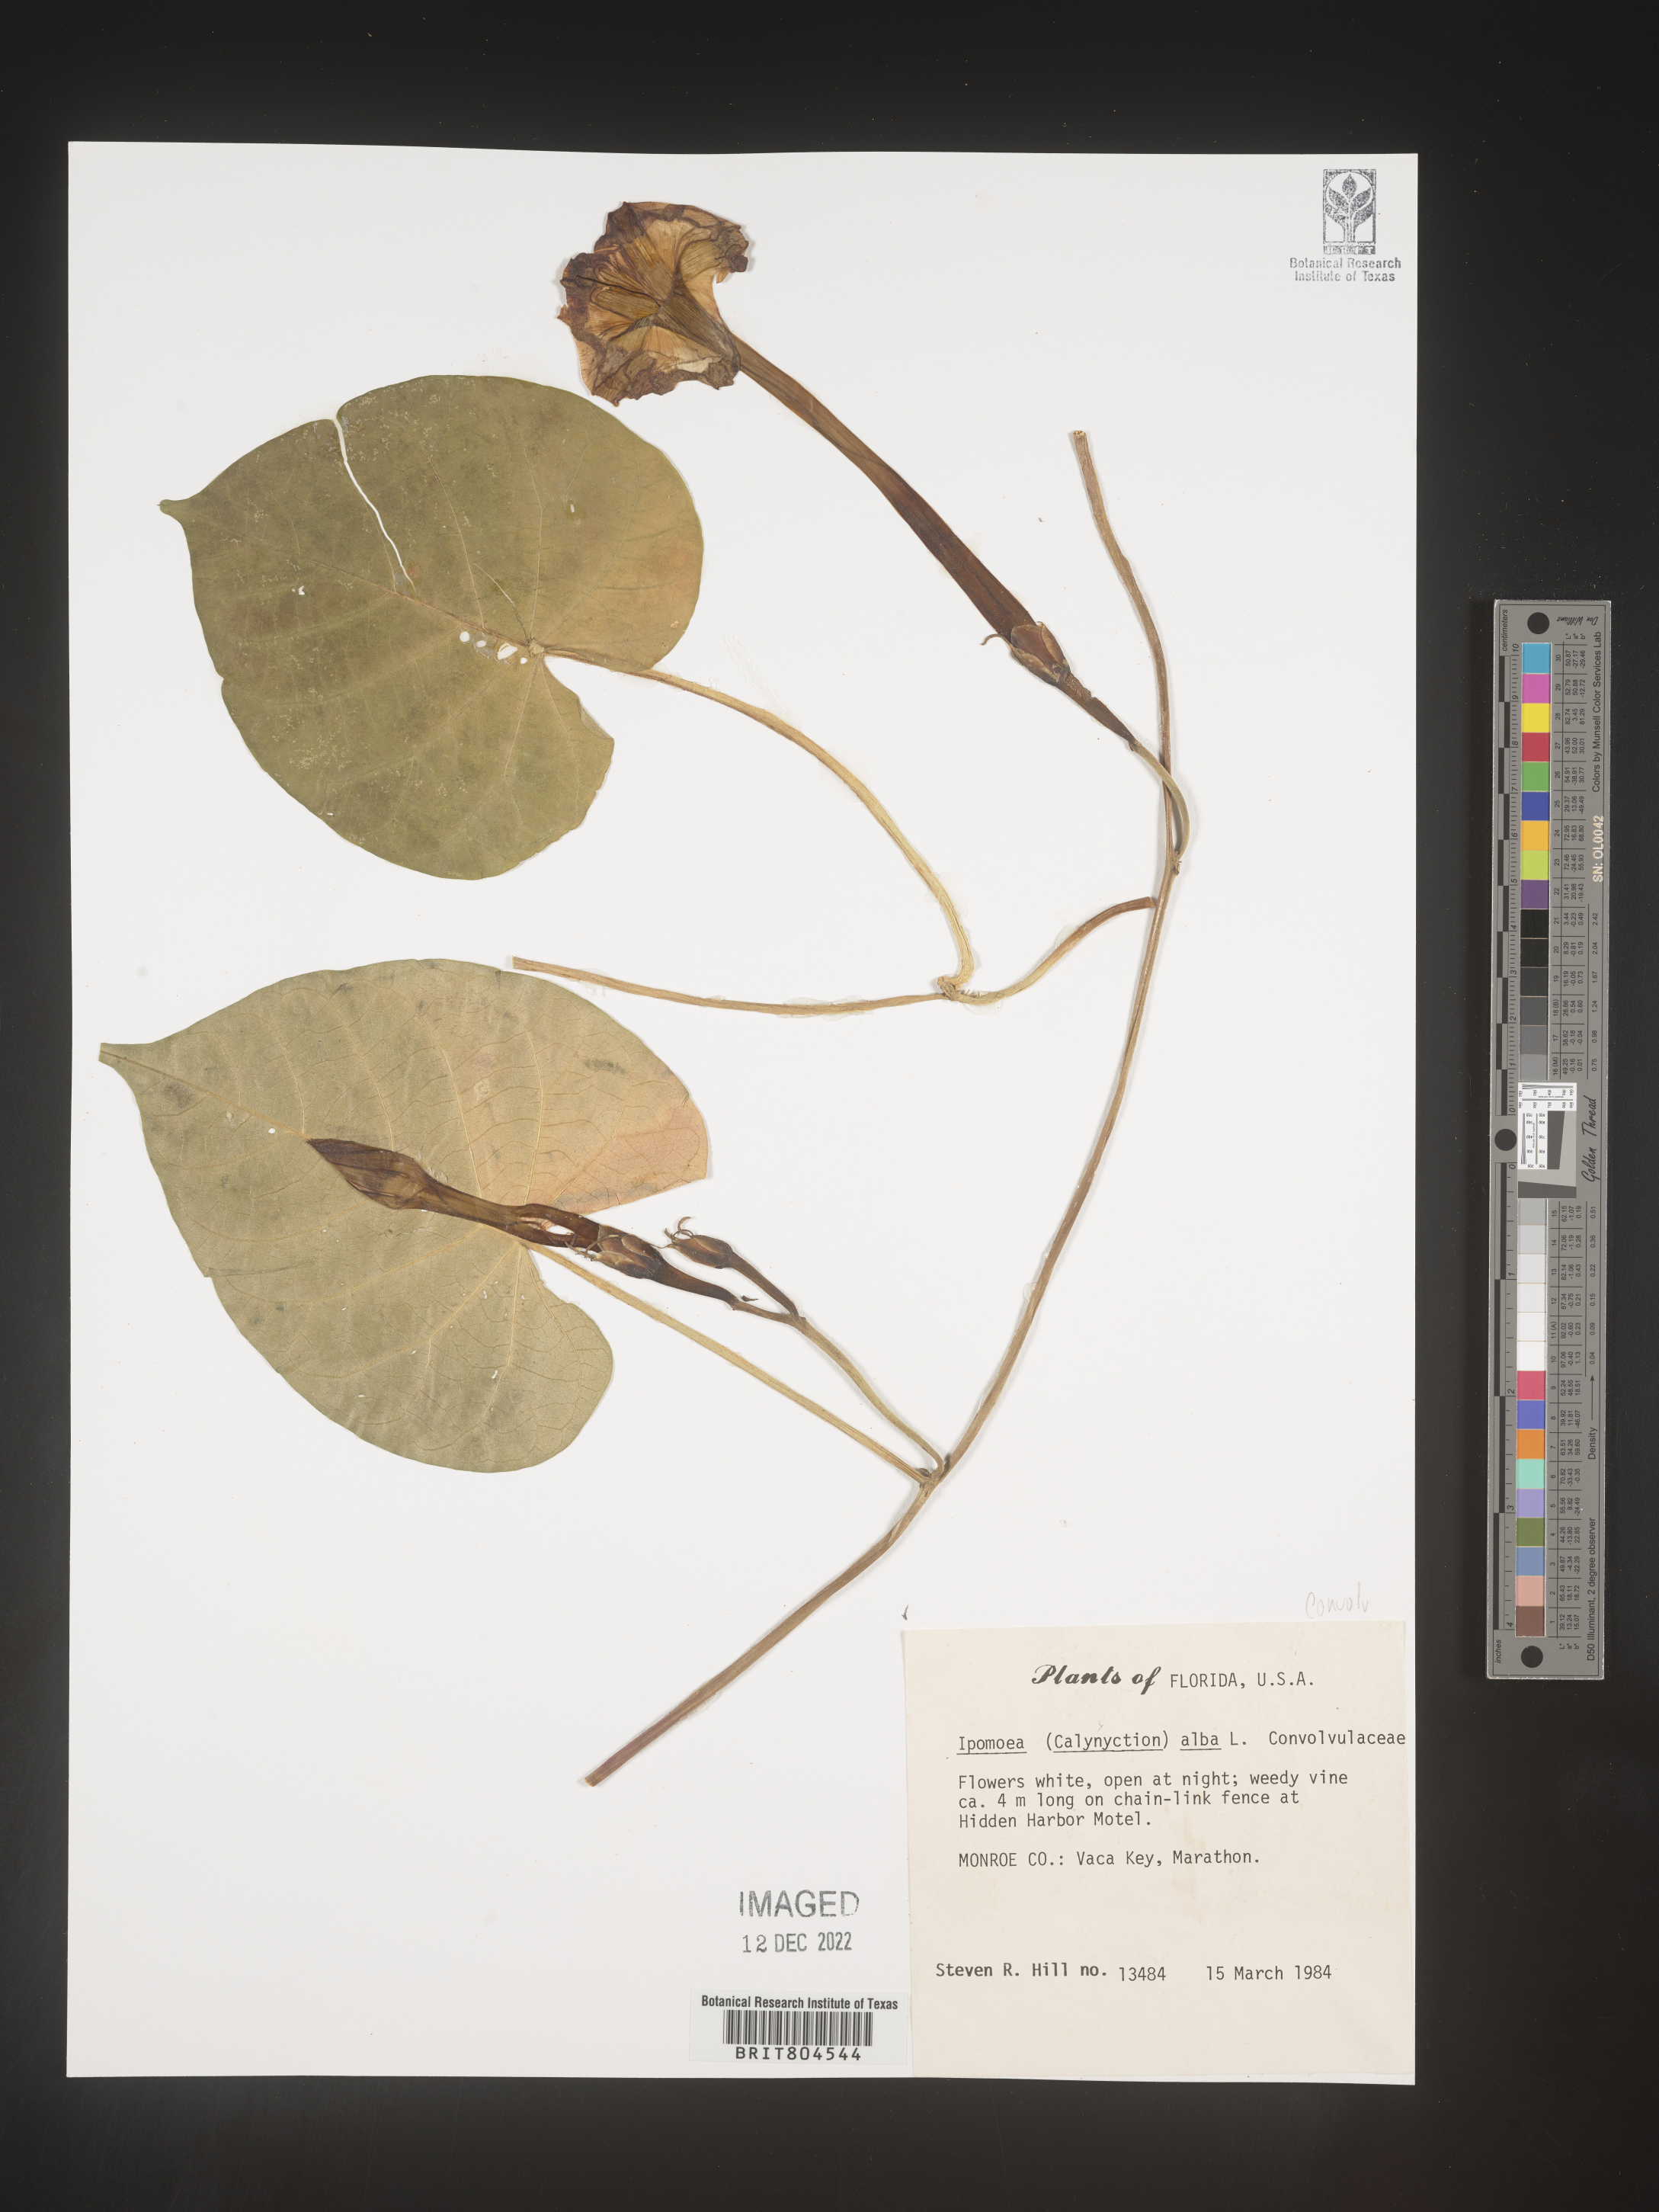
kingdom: Plantae
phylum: Tracheophyta
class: Magnoliopsida
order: Solanales
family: Convolvulaceae
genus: Ipomoea
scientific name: Ipomoea alba
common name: Moonflower
